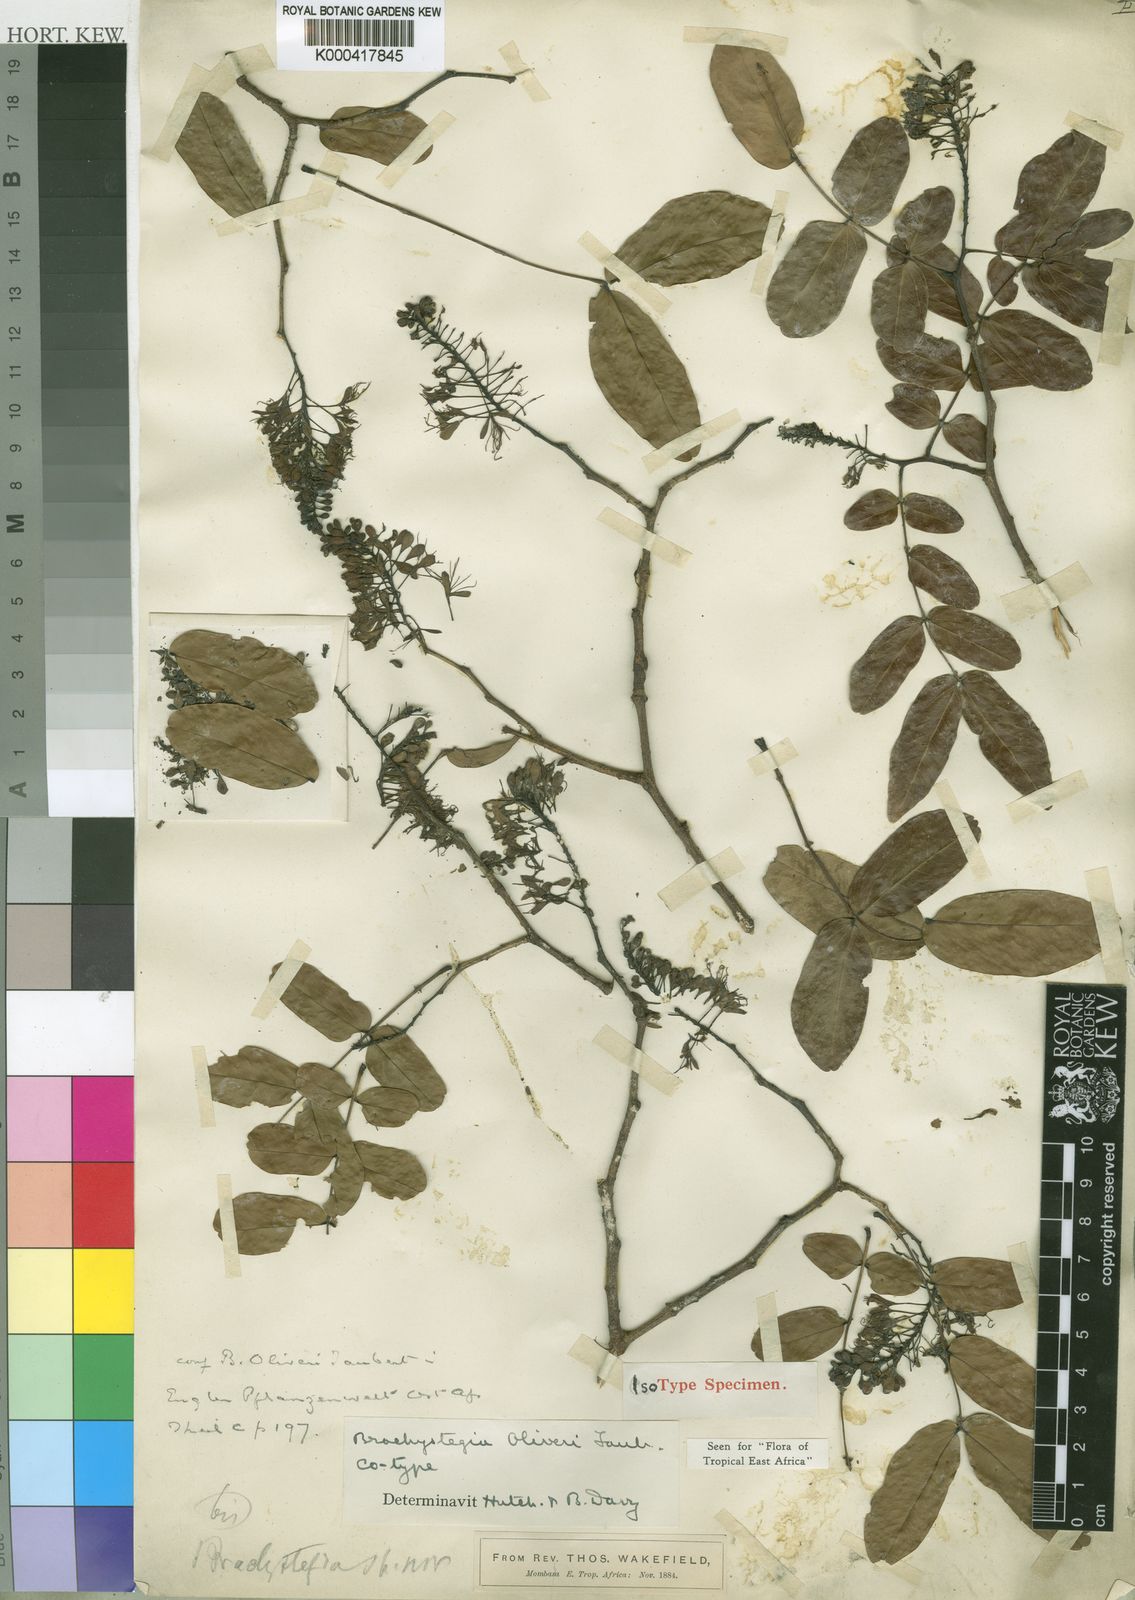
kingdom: Plantae
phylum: Tracheophyta
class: Magnoliopsida
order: Fabales
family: Fabaceae
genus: Brachystegia
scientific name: Brachystegia spiciformis
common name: Zebrawood
